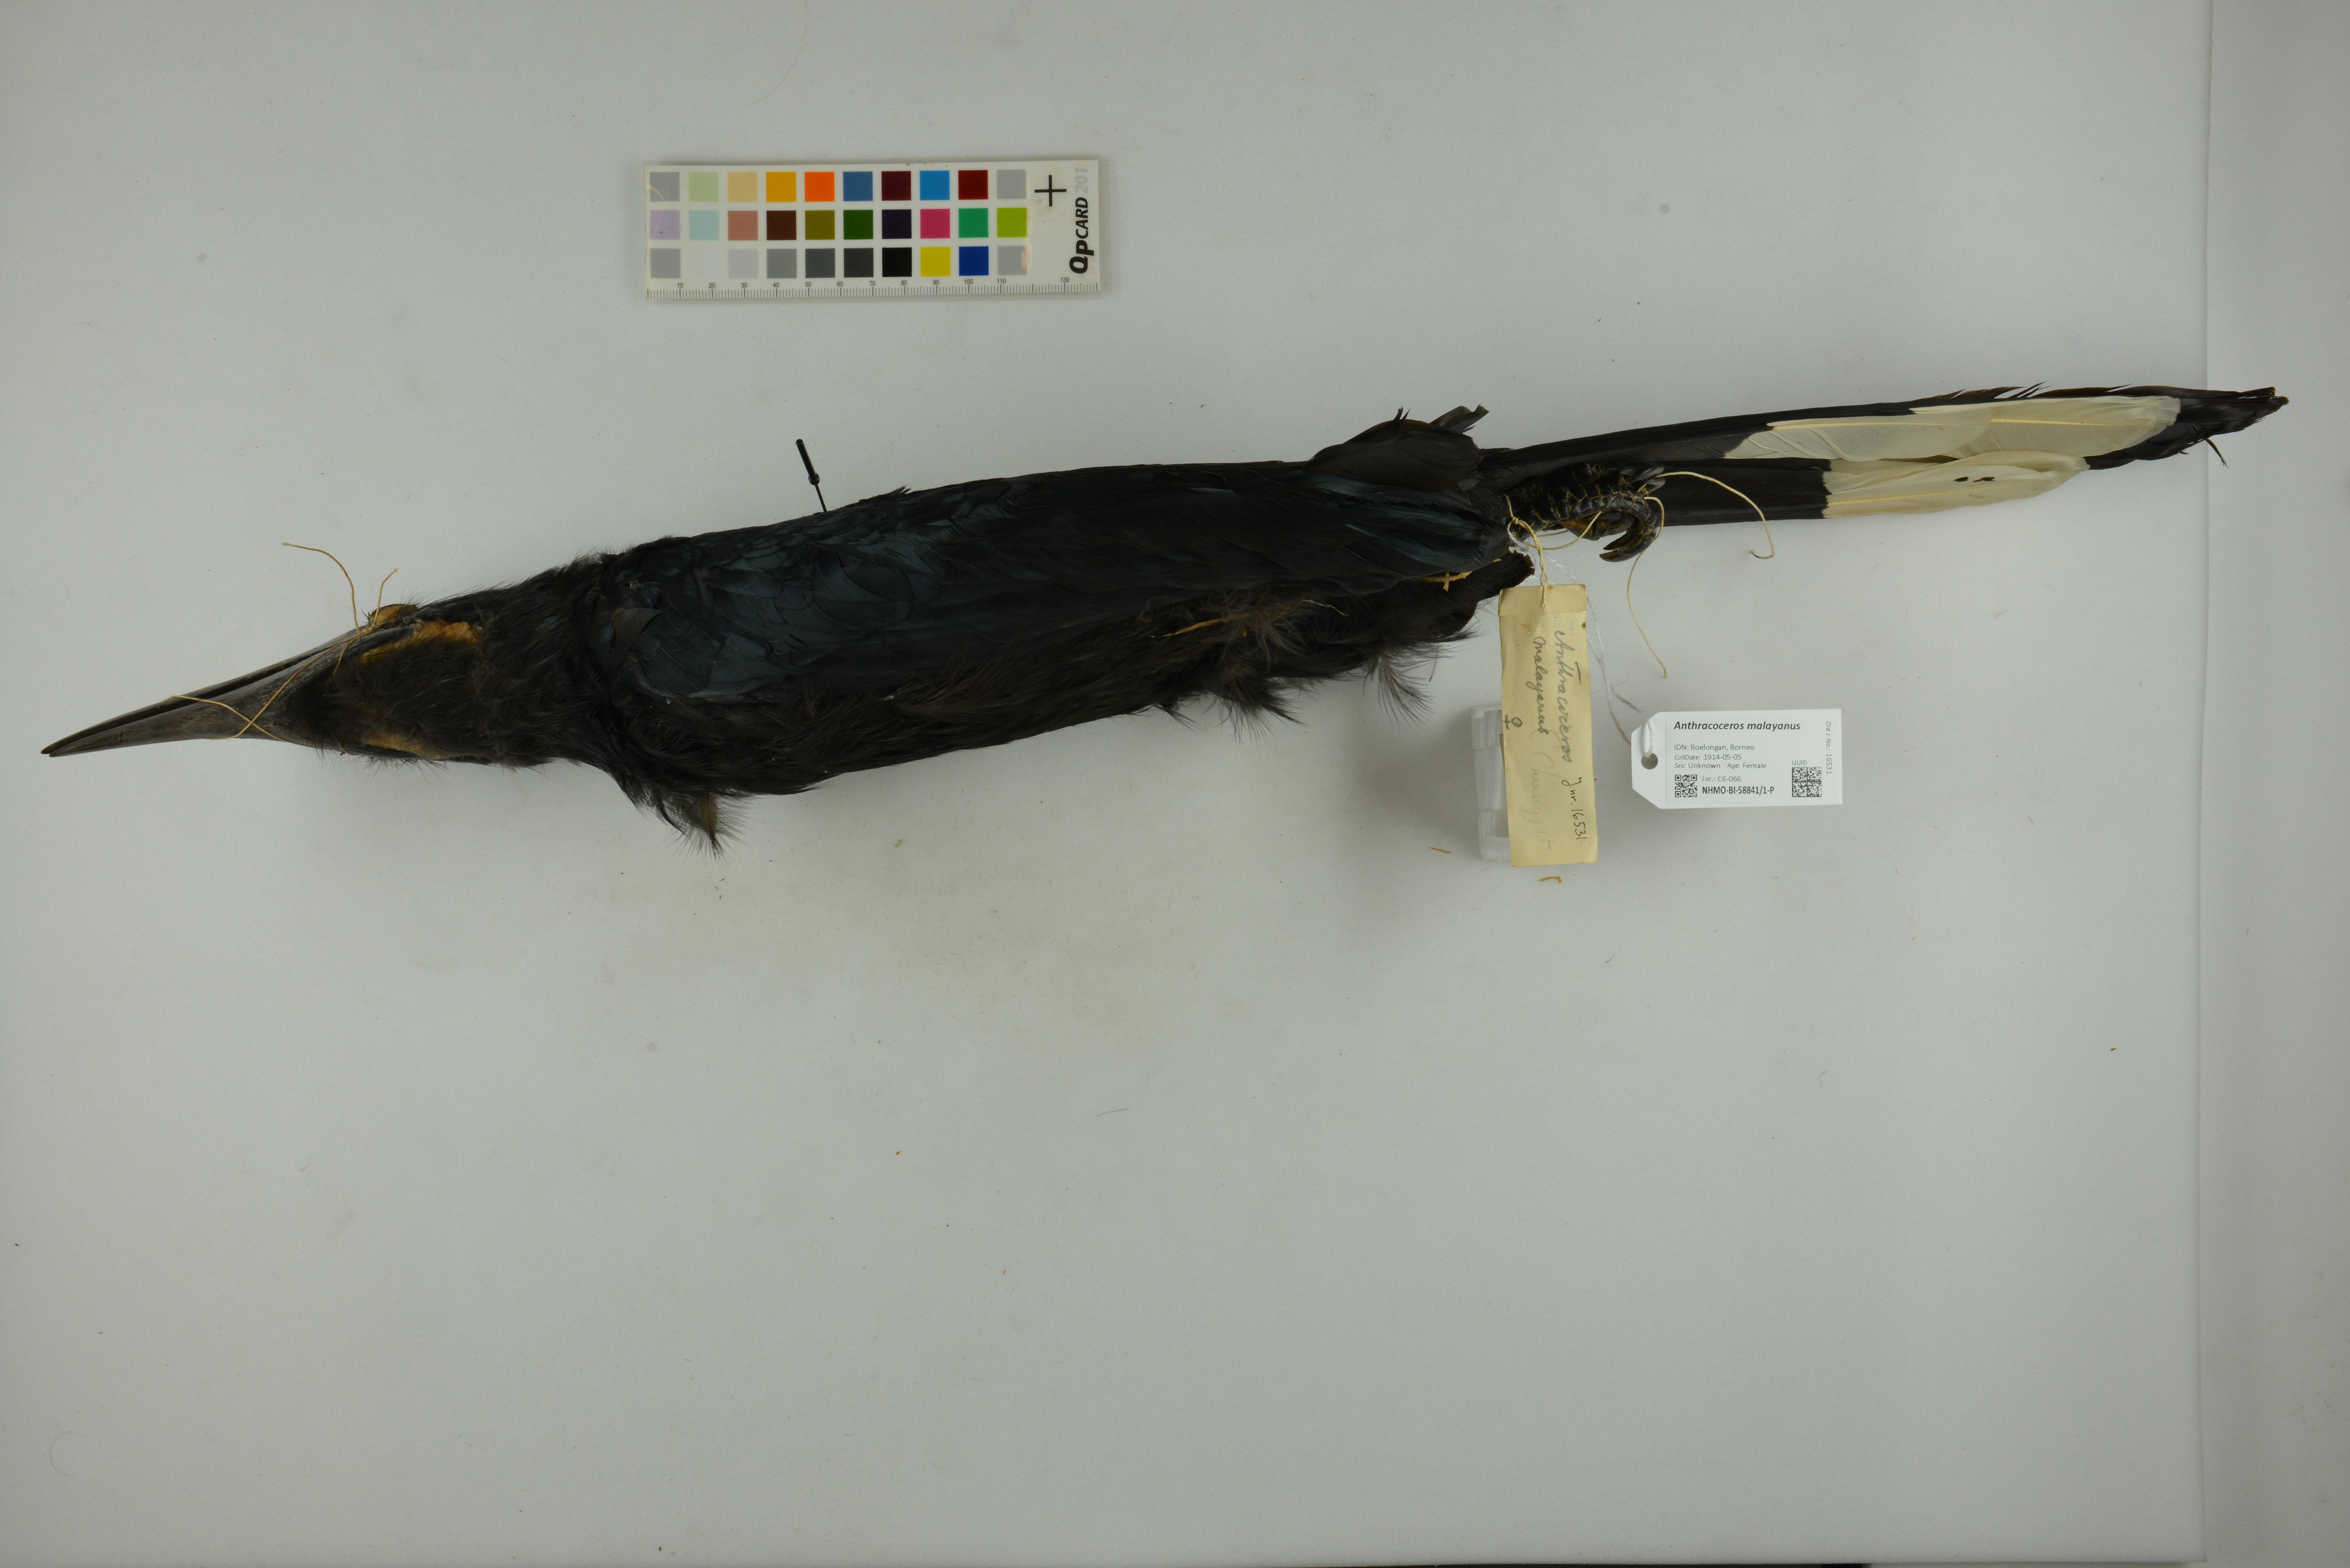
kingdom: Animalia
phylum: Chordata
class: Aves
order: Bucerotiformes
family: Bucerotidae
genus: Anthracoceros
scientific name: Anthracoceros malayanus
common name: Black hornbill
